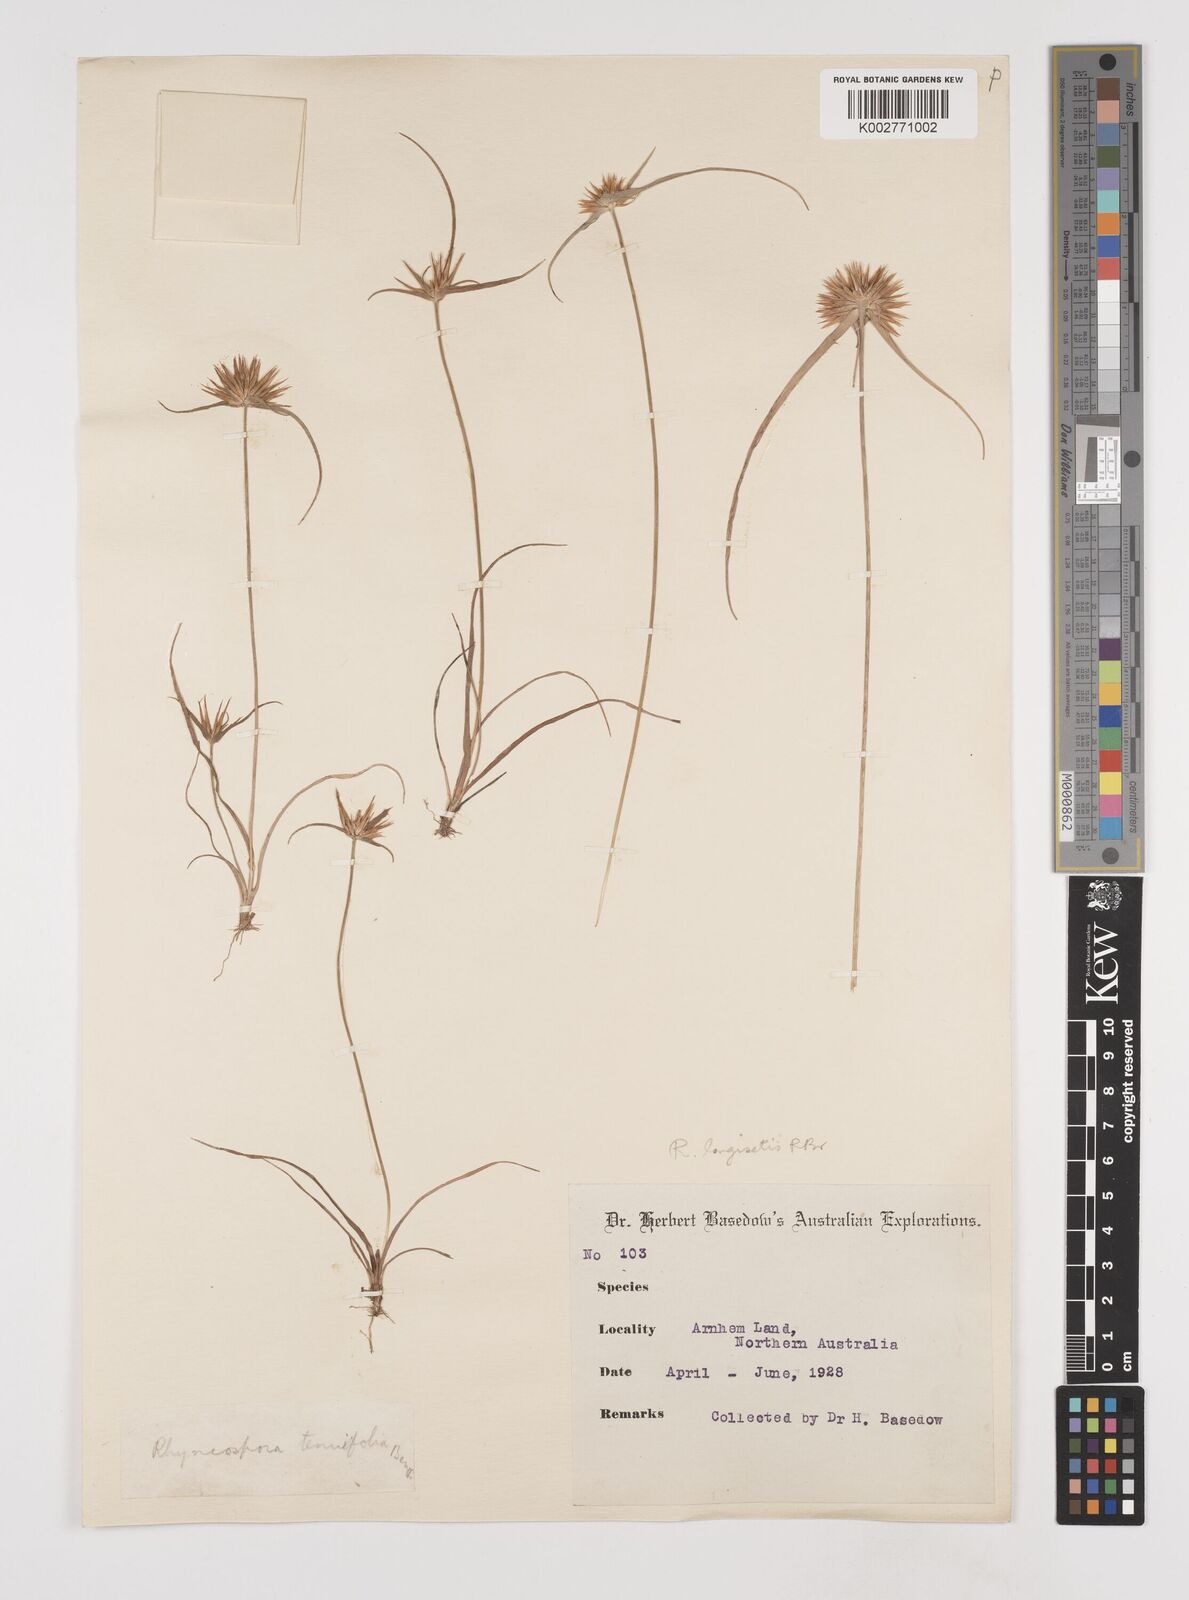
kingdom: Plantae
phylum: Tracheophyta
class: Liliopsida
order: Poales
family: Cyperaceae
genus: Rhynchospora
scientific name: Rhynchospora longisetis
